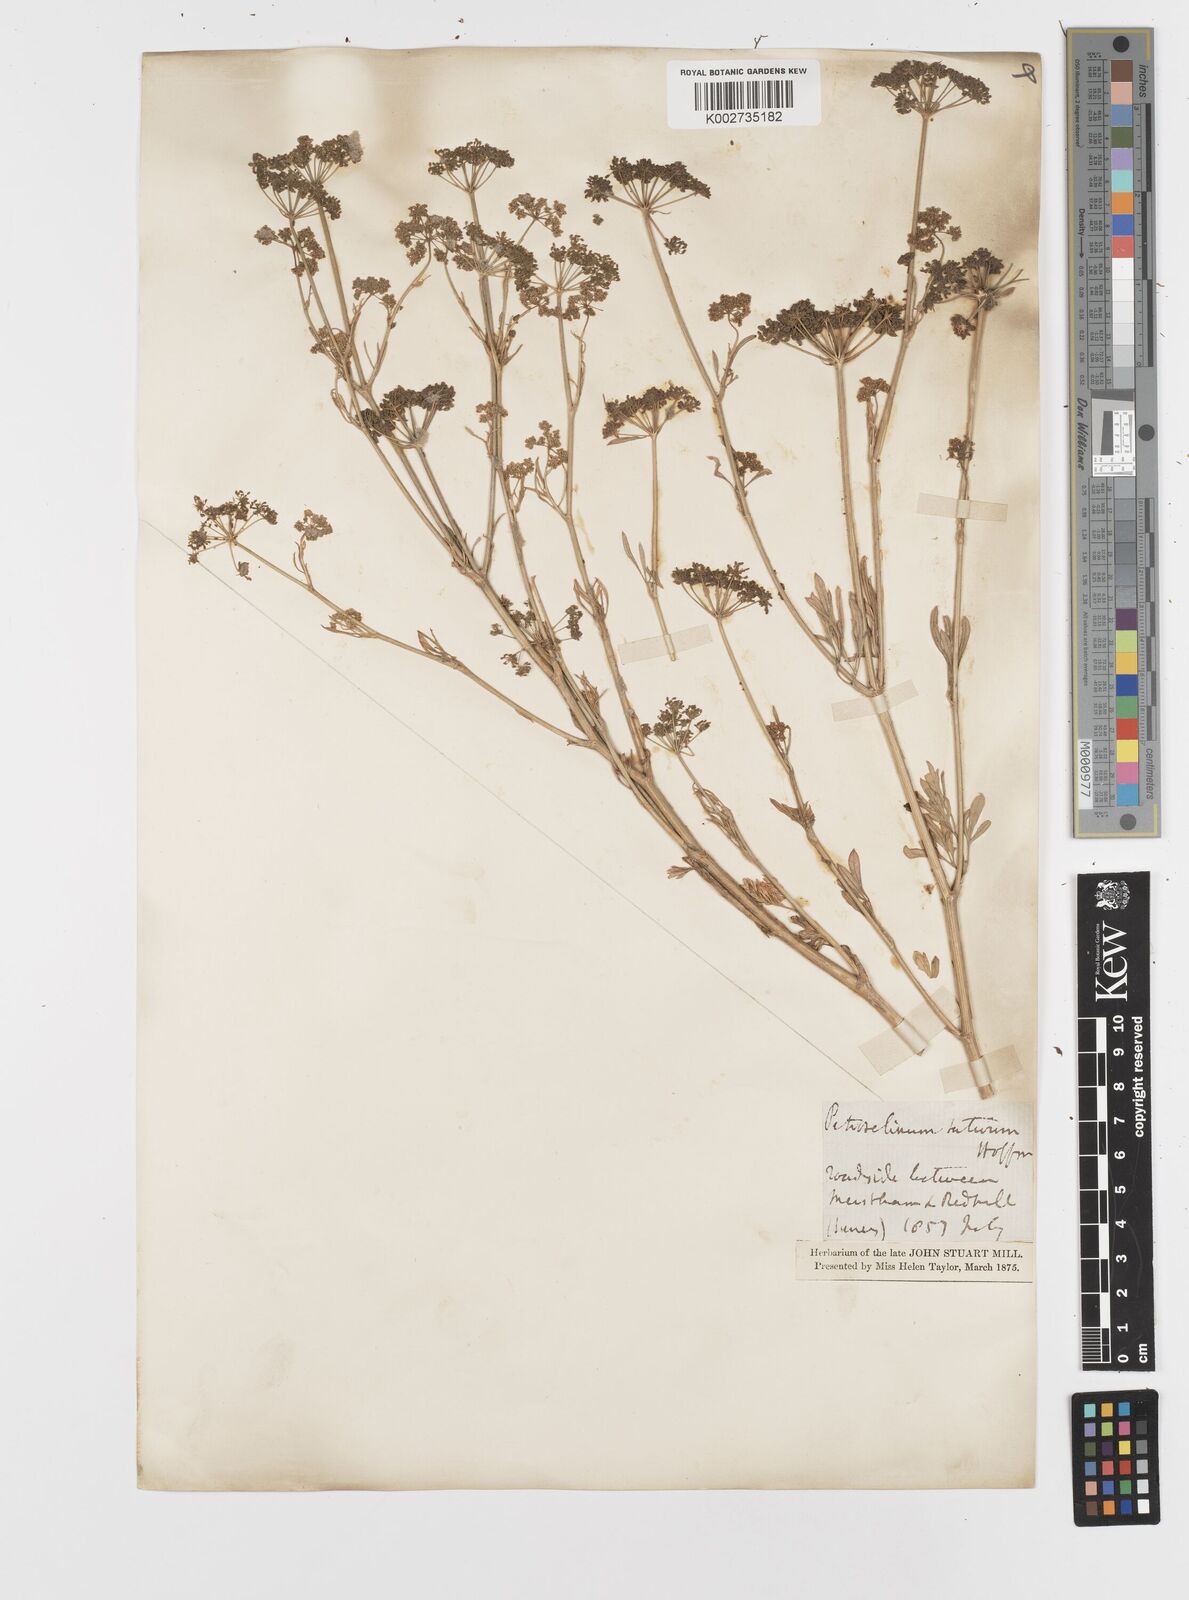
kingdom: Plantae
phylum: Tracheophyta
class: Magnoliopsida
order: Apiales
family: Apiaceae
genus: Petroselinum
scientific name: Petroselinum crispum
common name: Parsley
